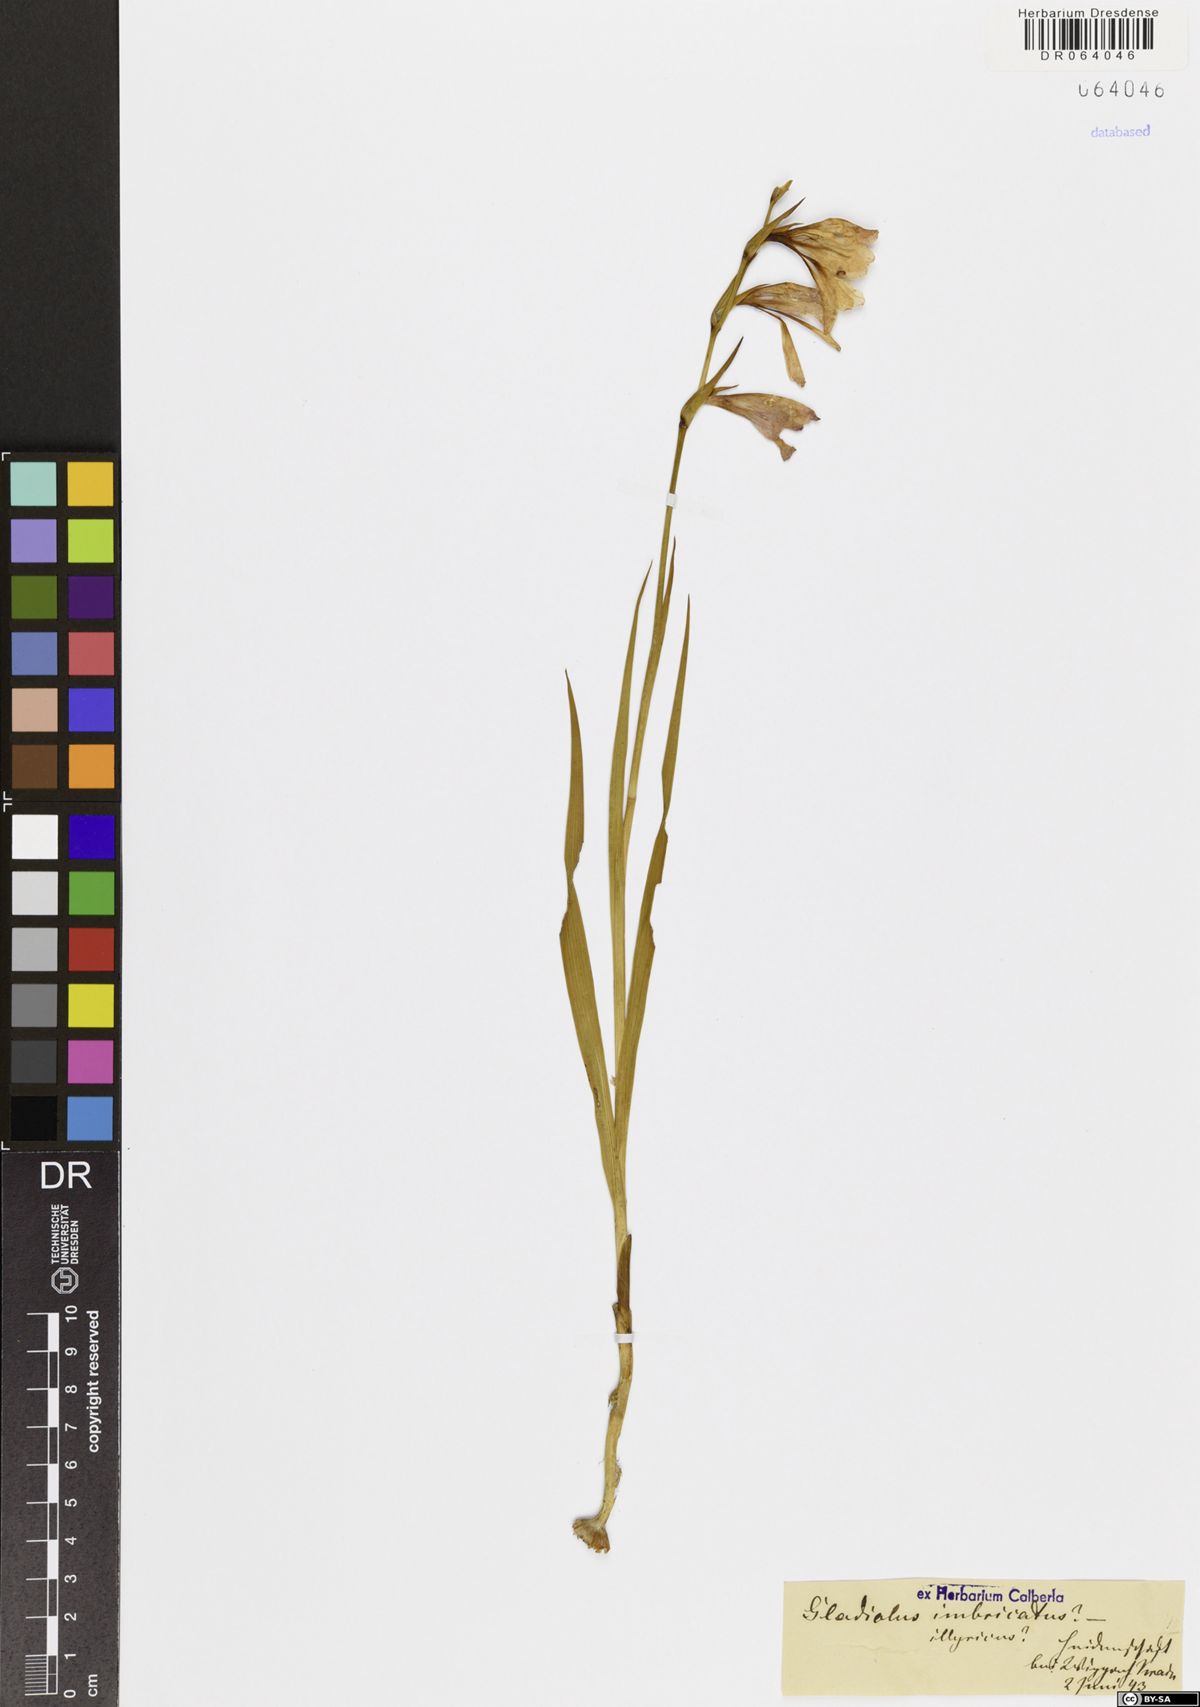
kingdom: Plantae
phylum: Tracheophyta
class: Liliopsida
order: Asparagales
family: Iridaceae
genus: Gladiolus
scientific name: Gladiolus imbricatus
